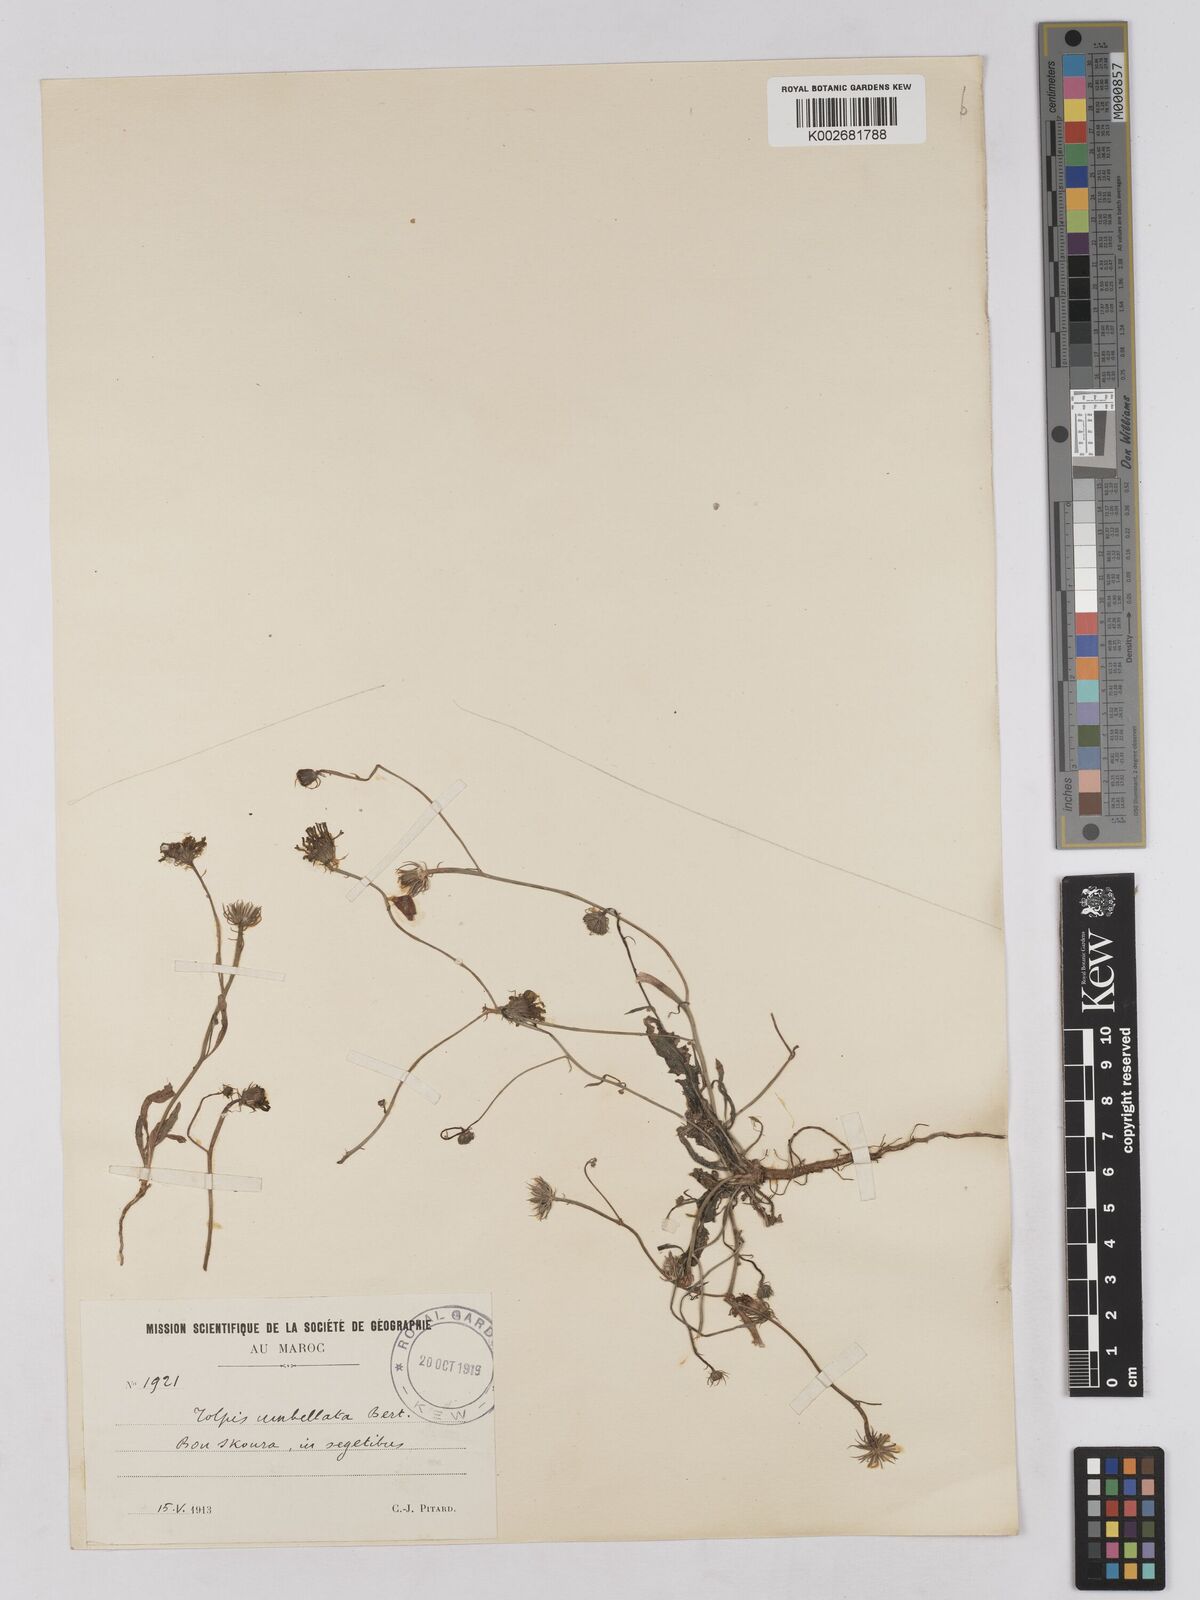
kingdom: Plantae
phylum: Tracheophyta
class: Magnoliopsida
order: Asterales
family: Asteraceae
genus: Tolpis
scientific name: Tolpis umbellata
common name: Yellow hawkweed
